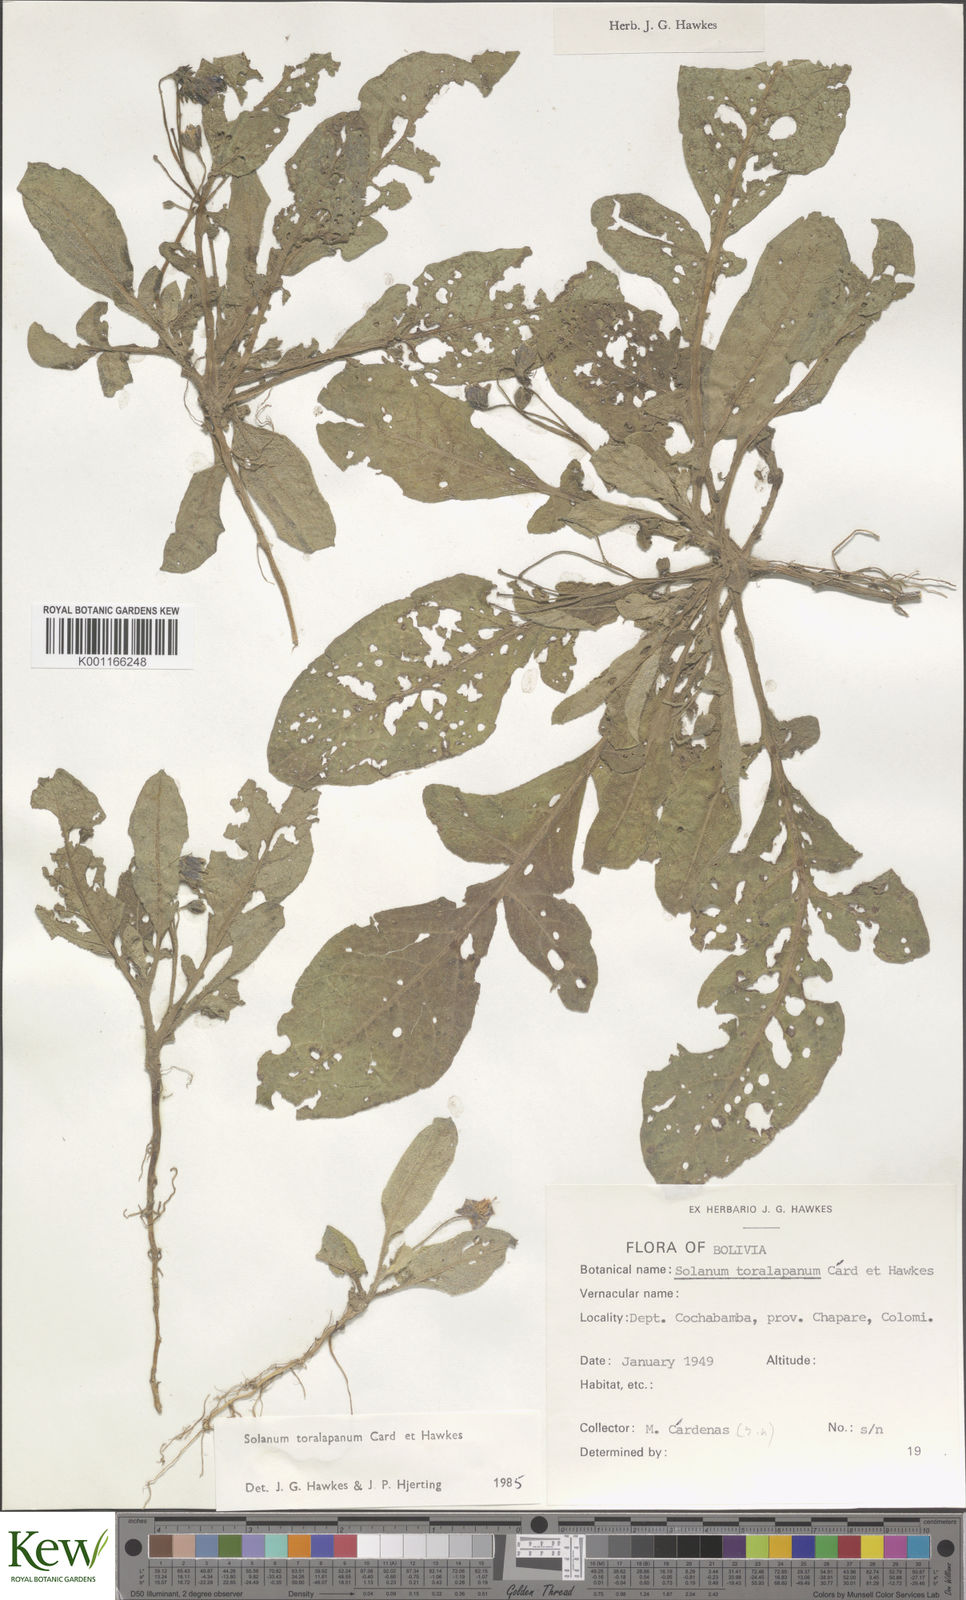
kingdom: Plantae
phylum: Tracheophyta
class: Magnoliopsida
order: Solanales
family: Solanaceae
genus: Solanum
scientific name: Solanum
